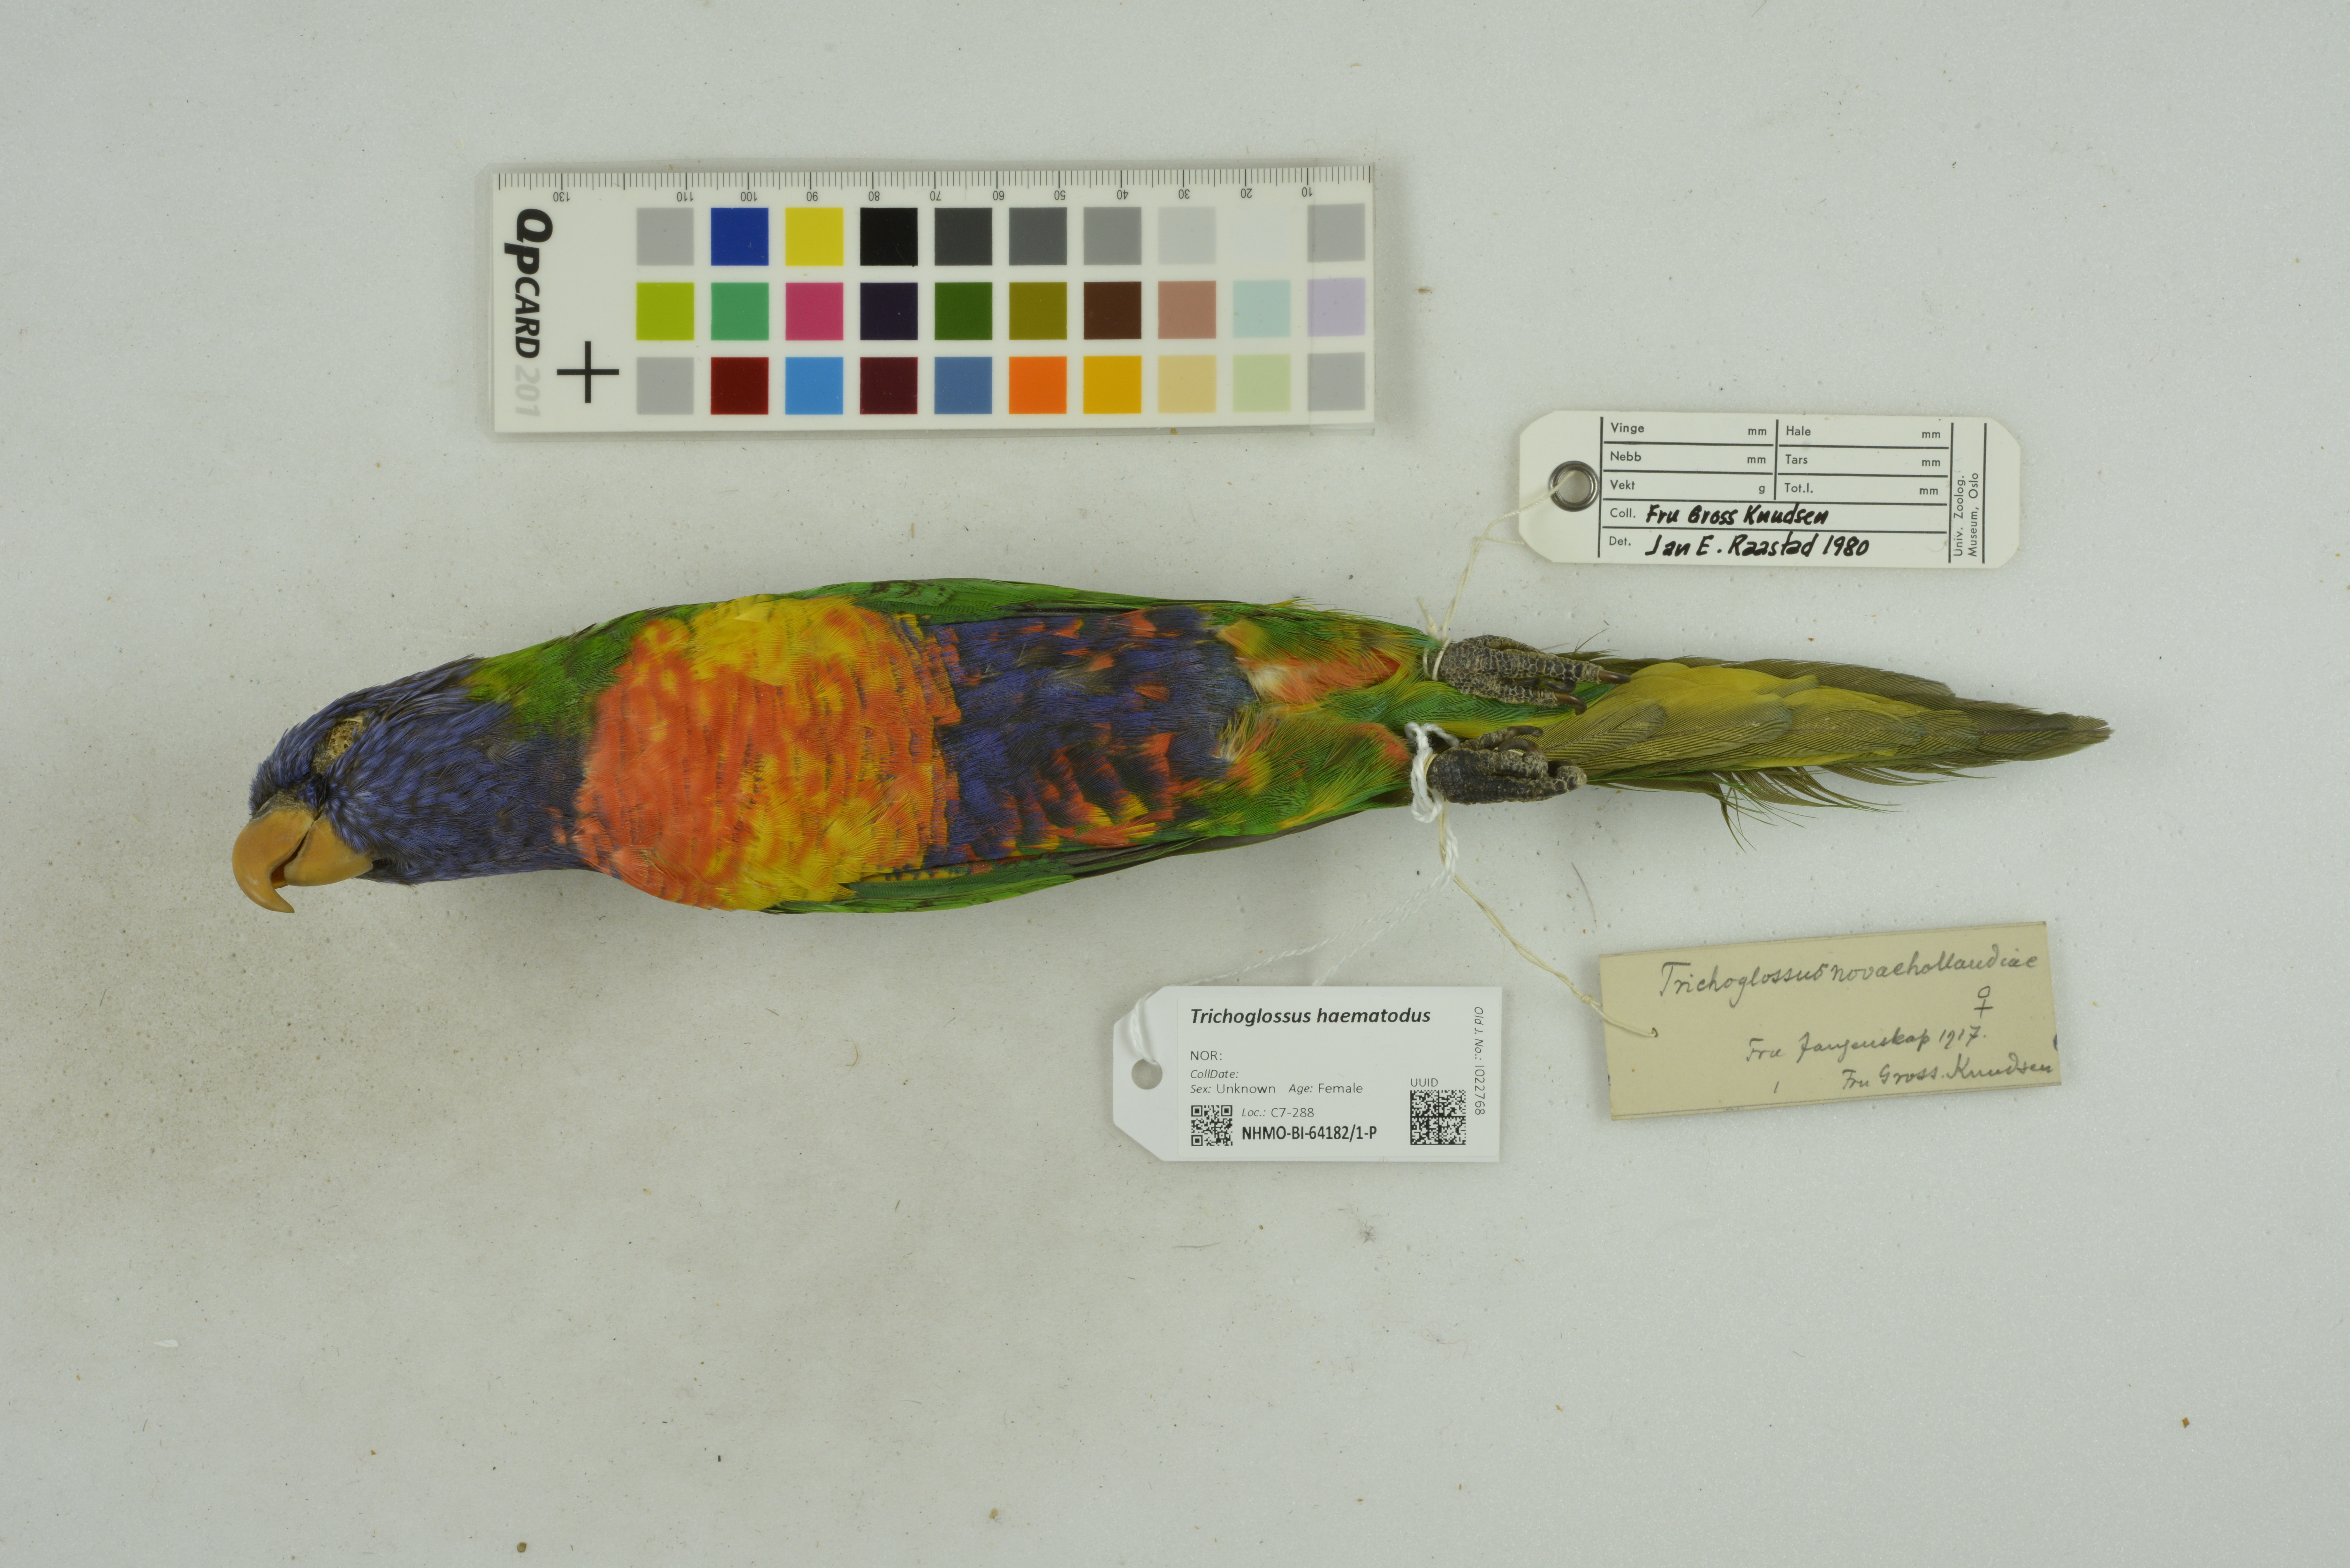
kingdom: Animalia
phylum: Chordata
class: Aves
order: Psittaciformes
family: Psittacidae
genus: Trichoglossus
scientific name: Trichoglossus haematodus
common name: Coconut lorikeet
